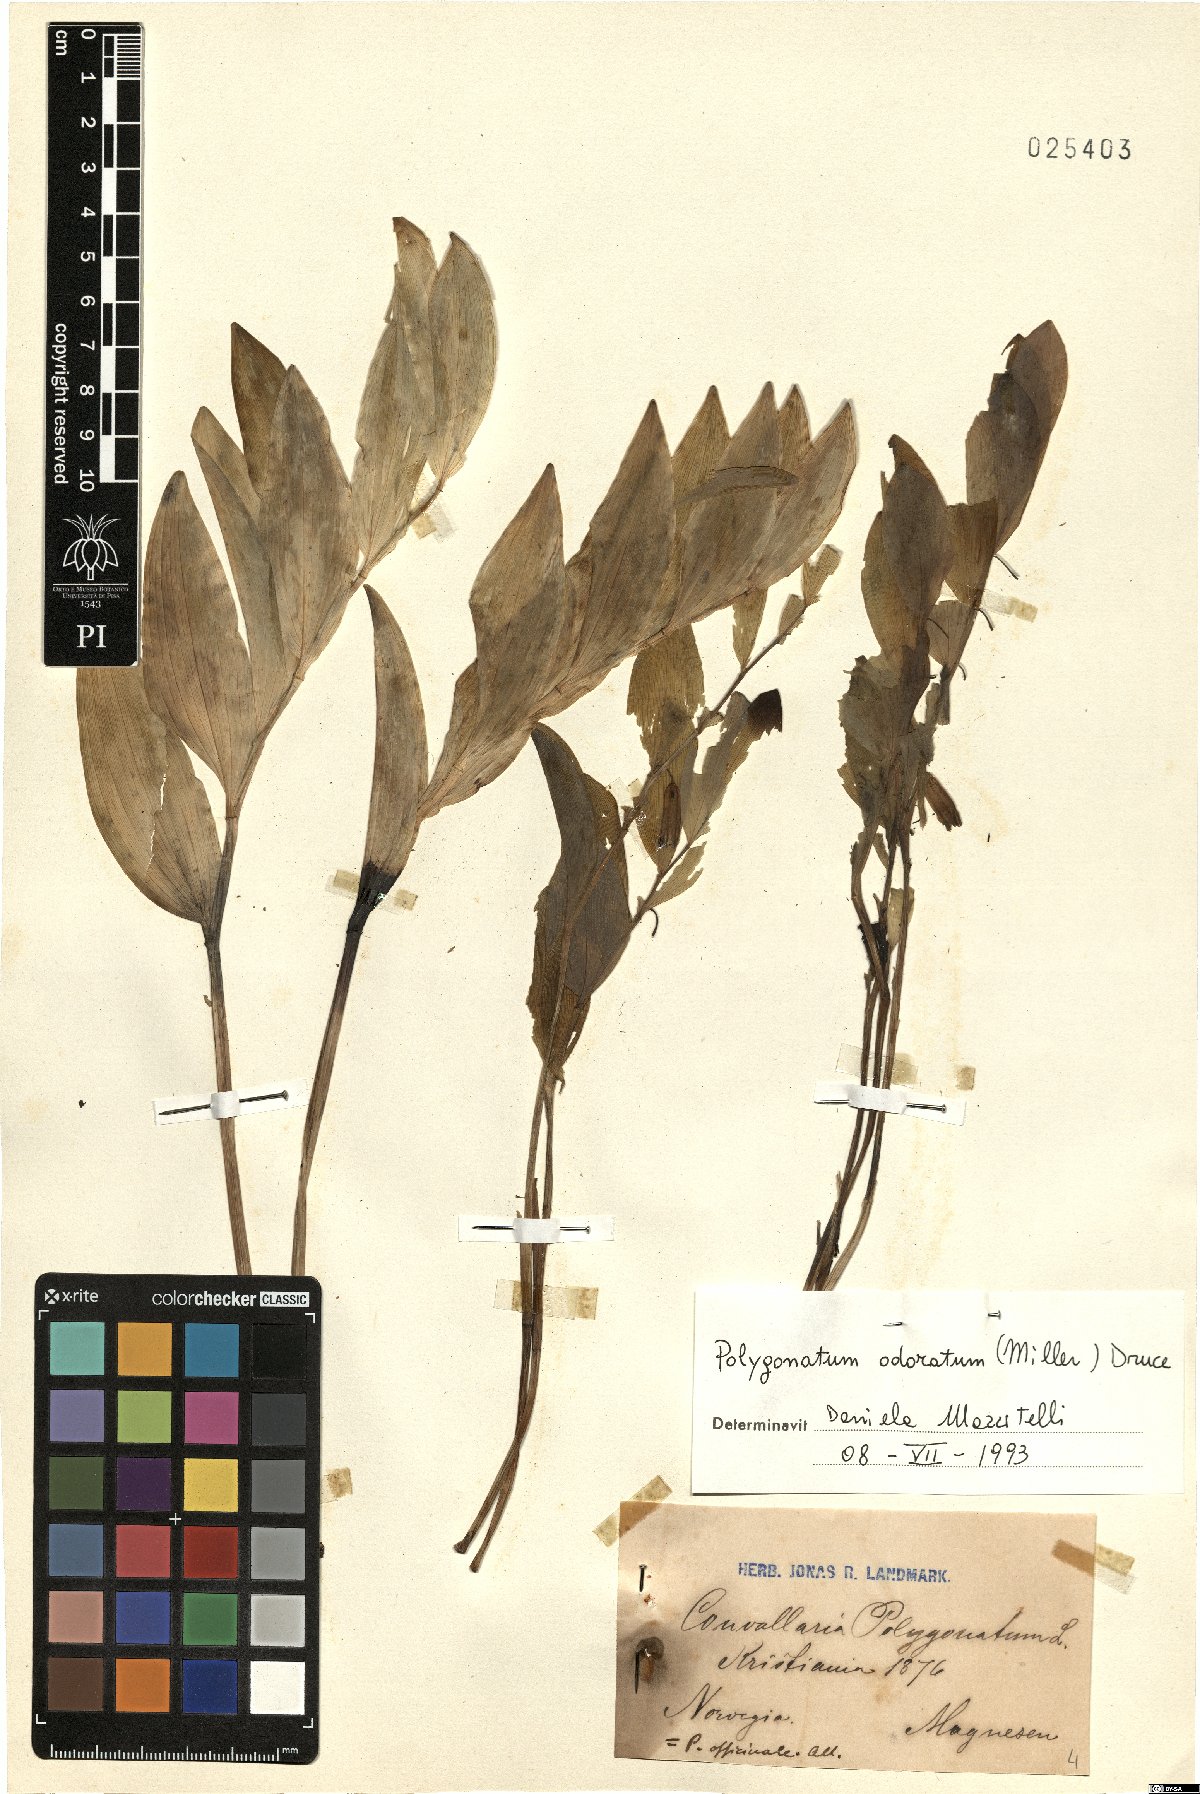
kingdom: Plantae
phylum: Tracheophyta
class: Liliopsida
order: Asparagales
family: Asparagaceae
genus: Polygonatum
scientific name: Polygonatum odoratum
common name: Angular solomon's-seal
